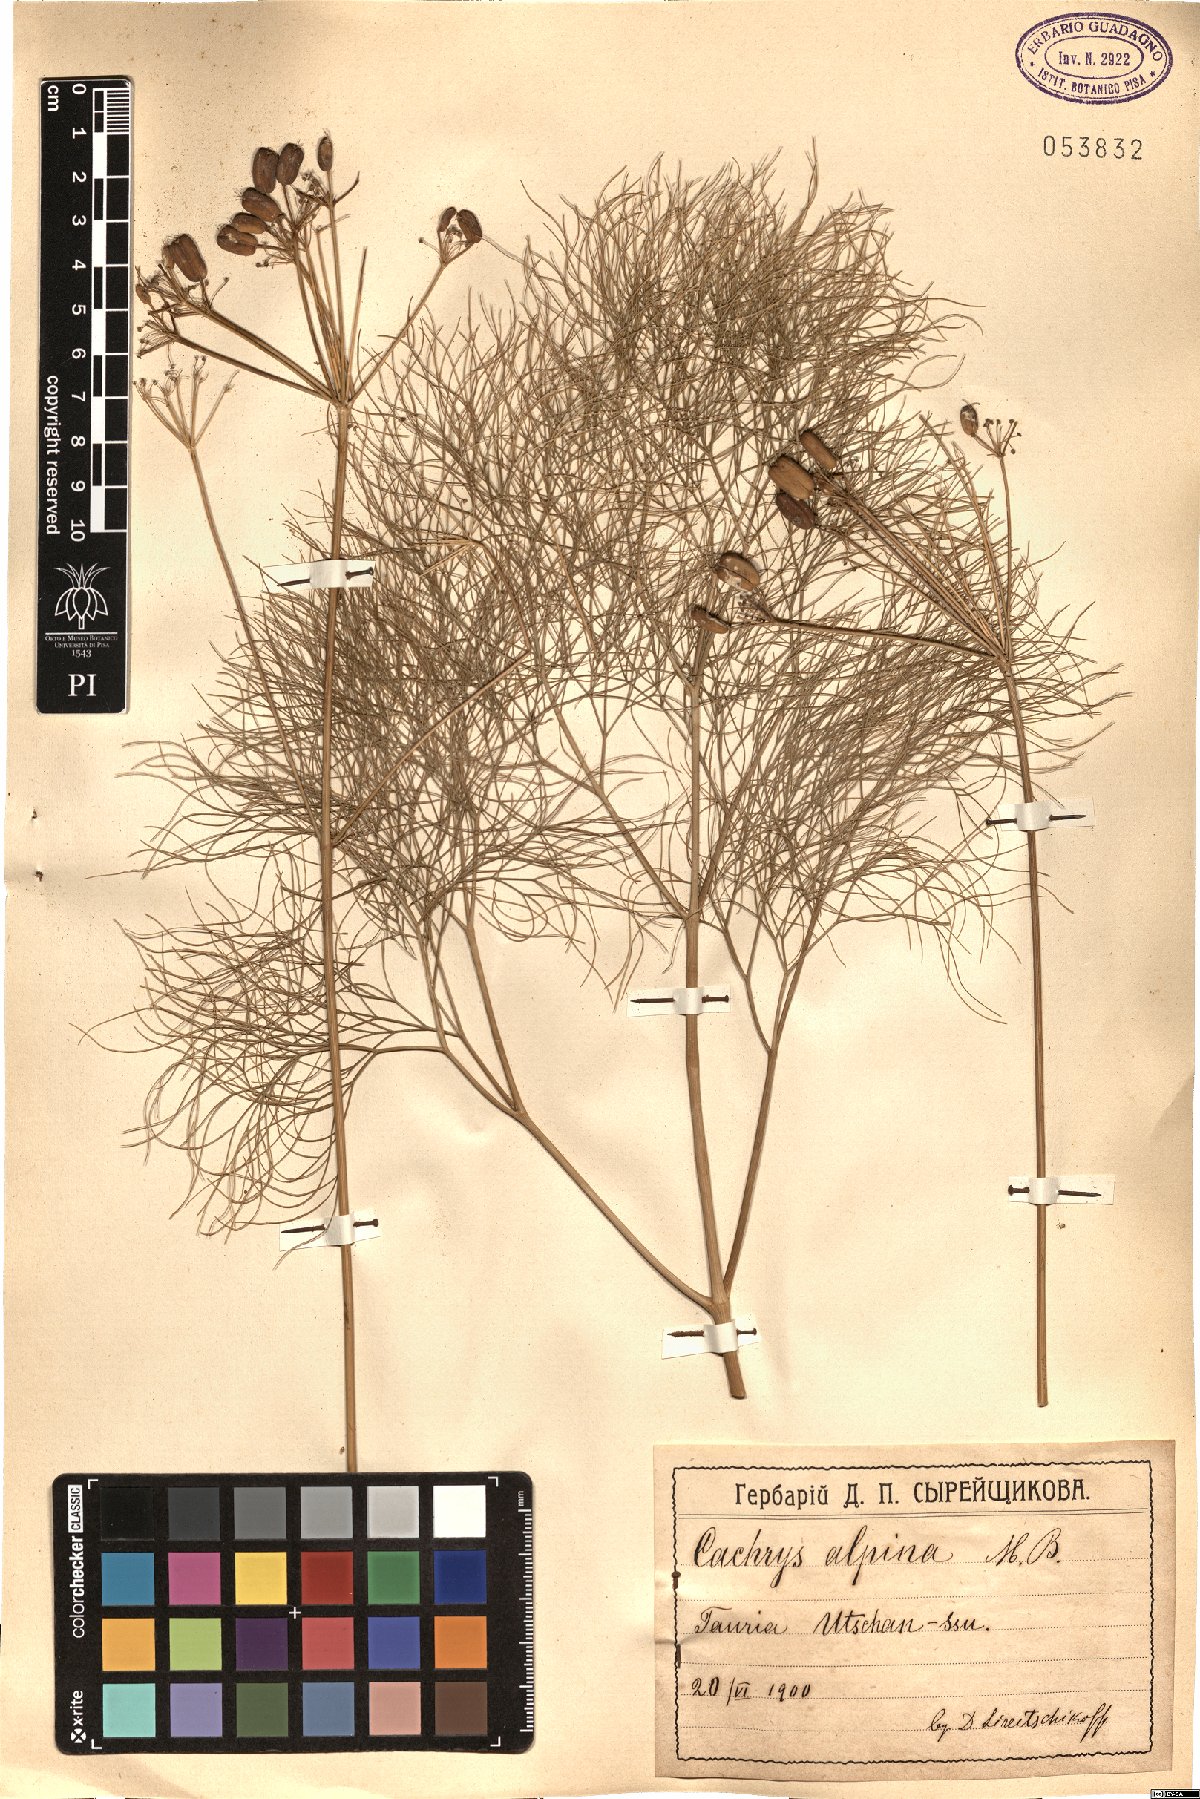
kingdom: Plantae
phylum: Tracheophyta
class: Magnoliopsida
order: Apiales
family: Apiaceae
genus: Prangos
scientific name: Prangos trifida
